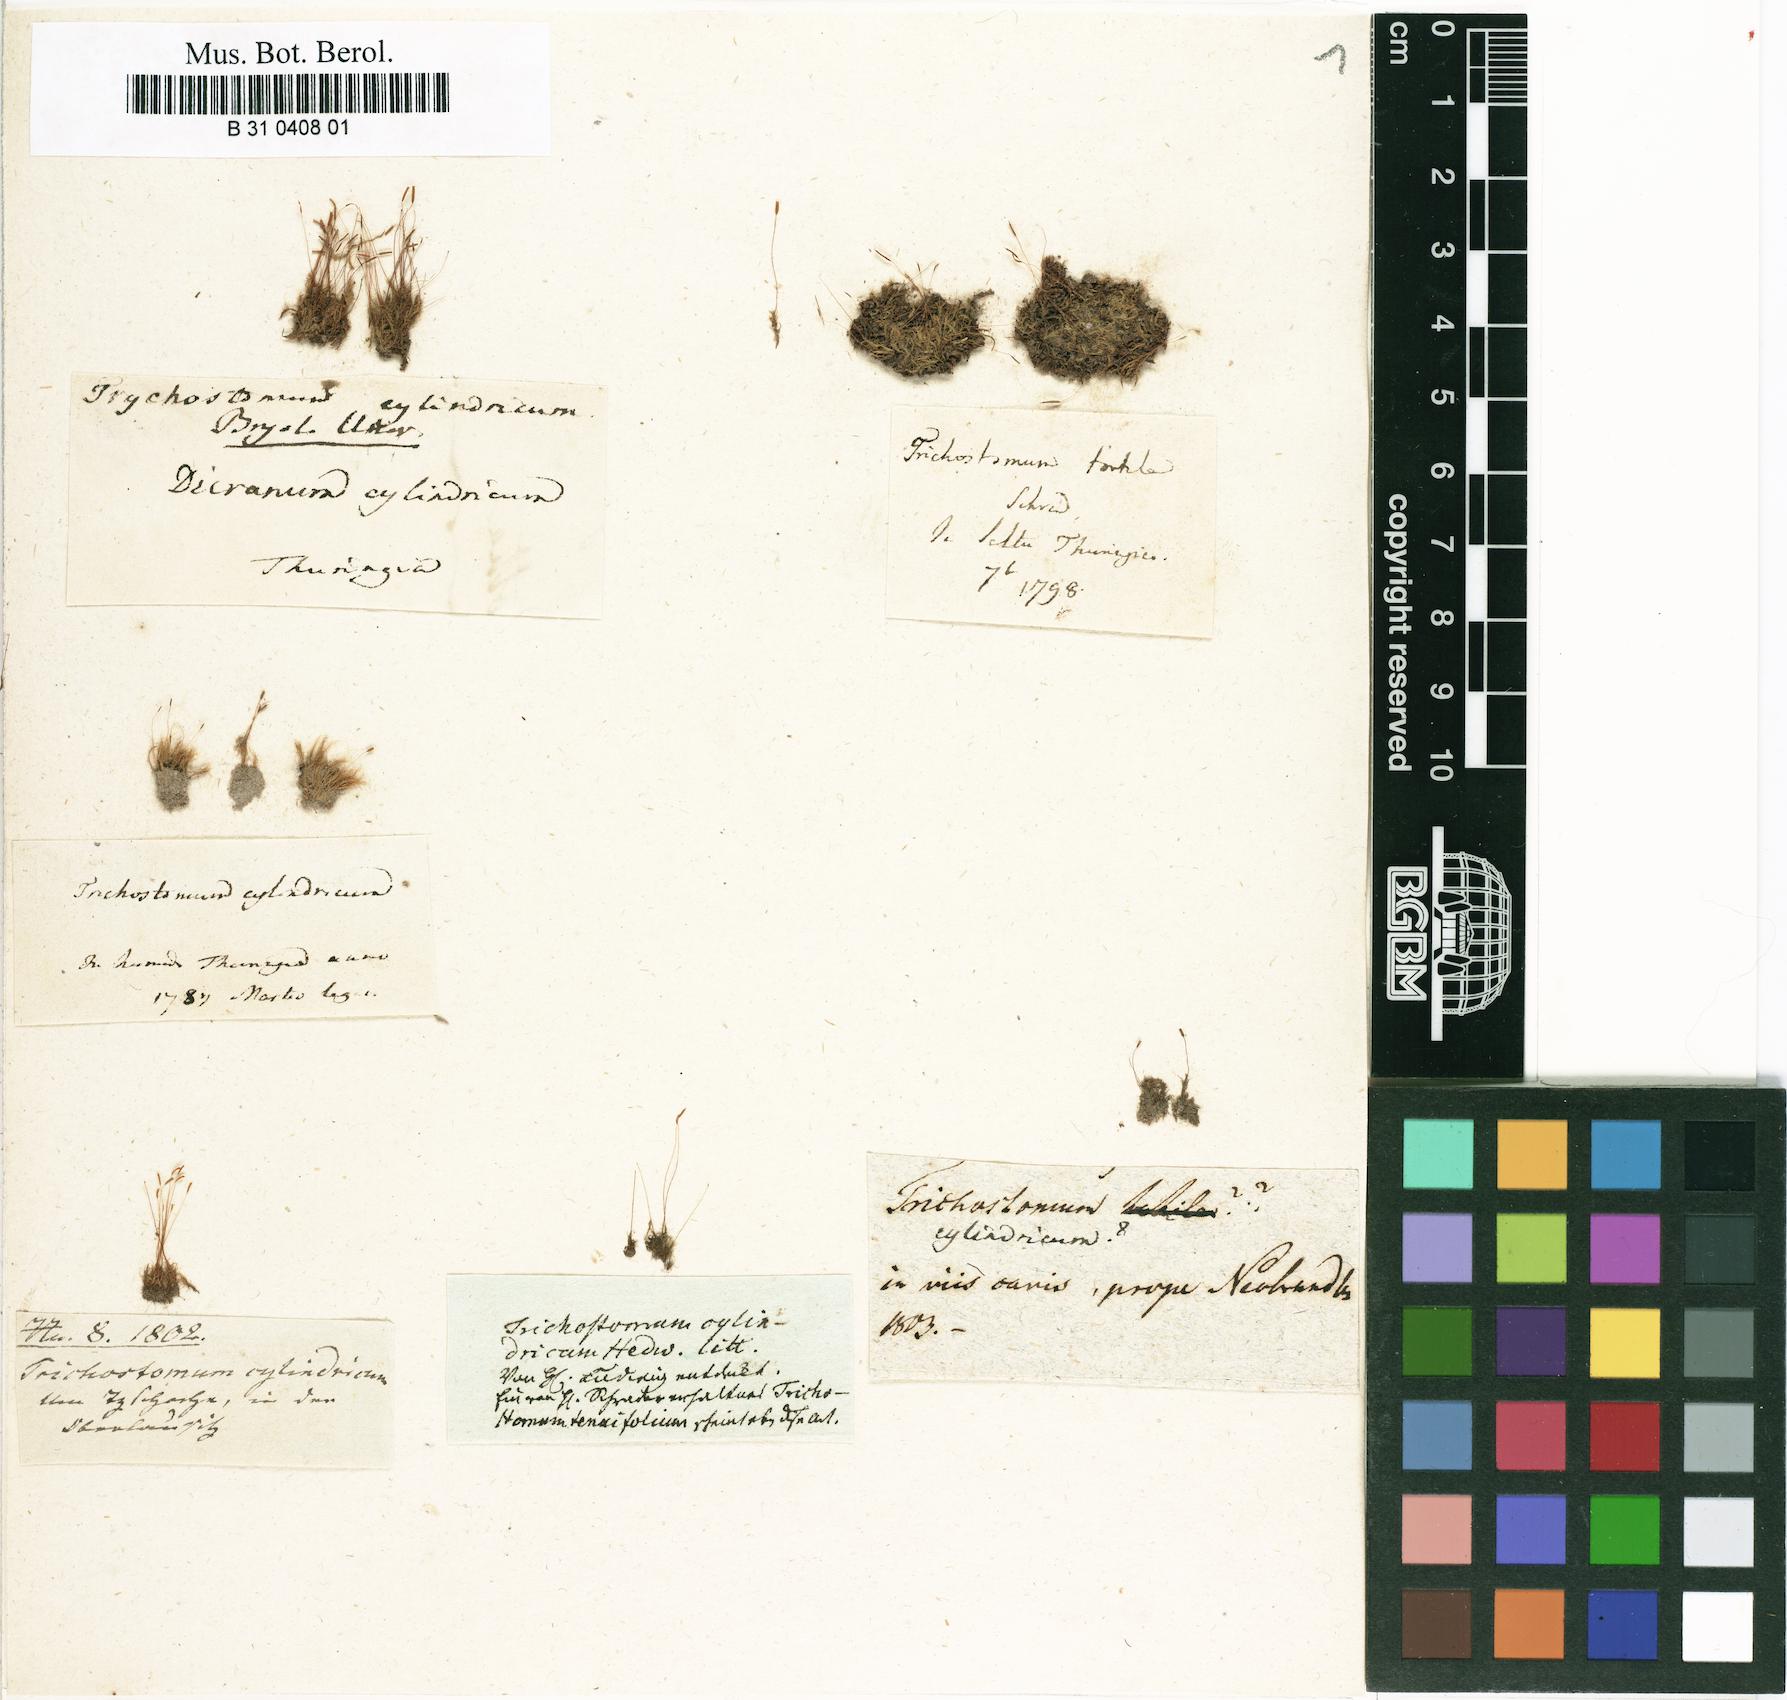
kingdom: Plantae
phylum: Bryophyta
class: Bryopsida
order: Dicranales
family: Ditrichaceae
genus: Trichodon
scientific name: Trichodon cylindricus
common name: Cylindric hairy-teeth moss
